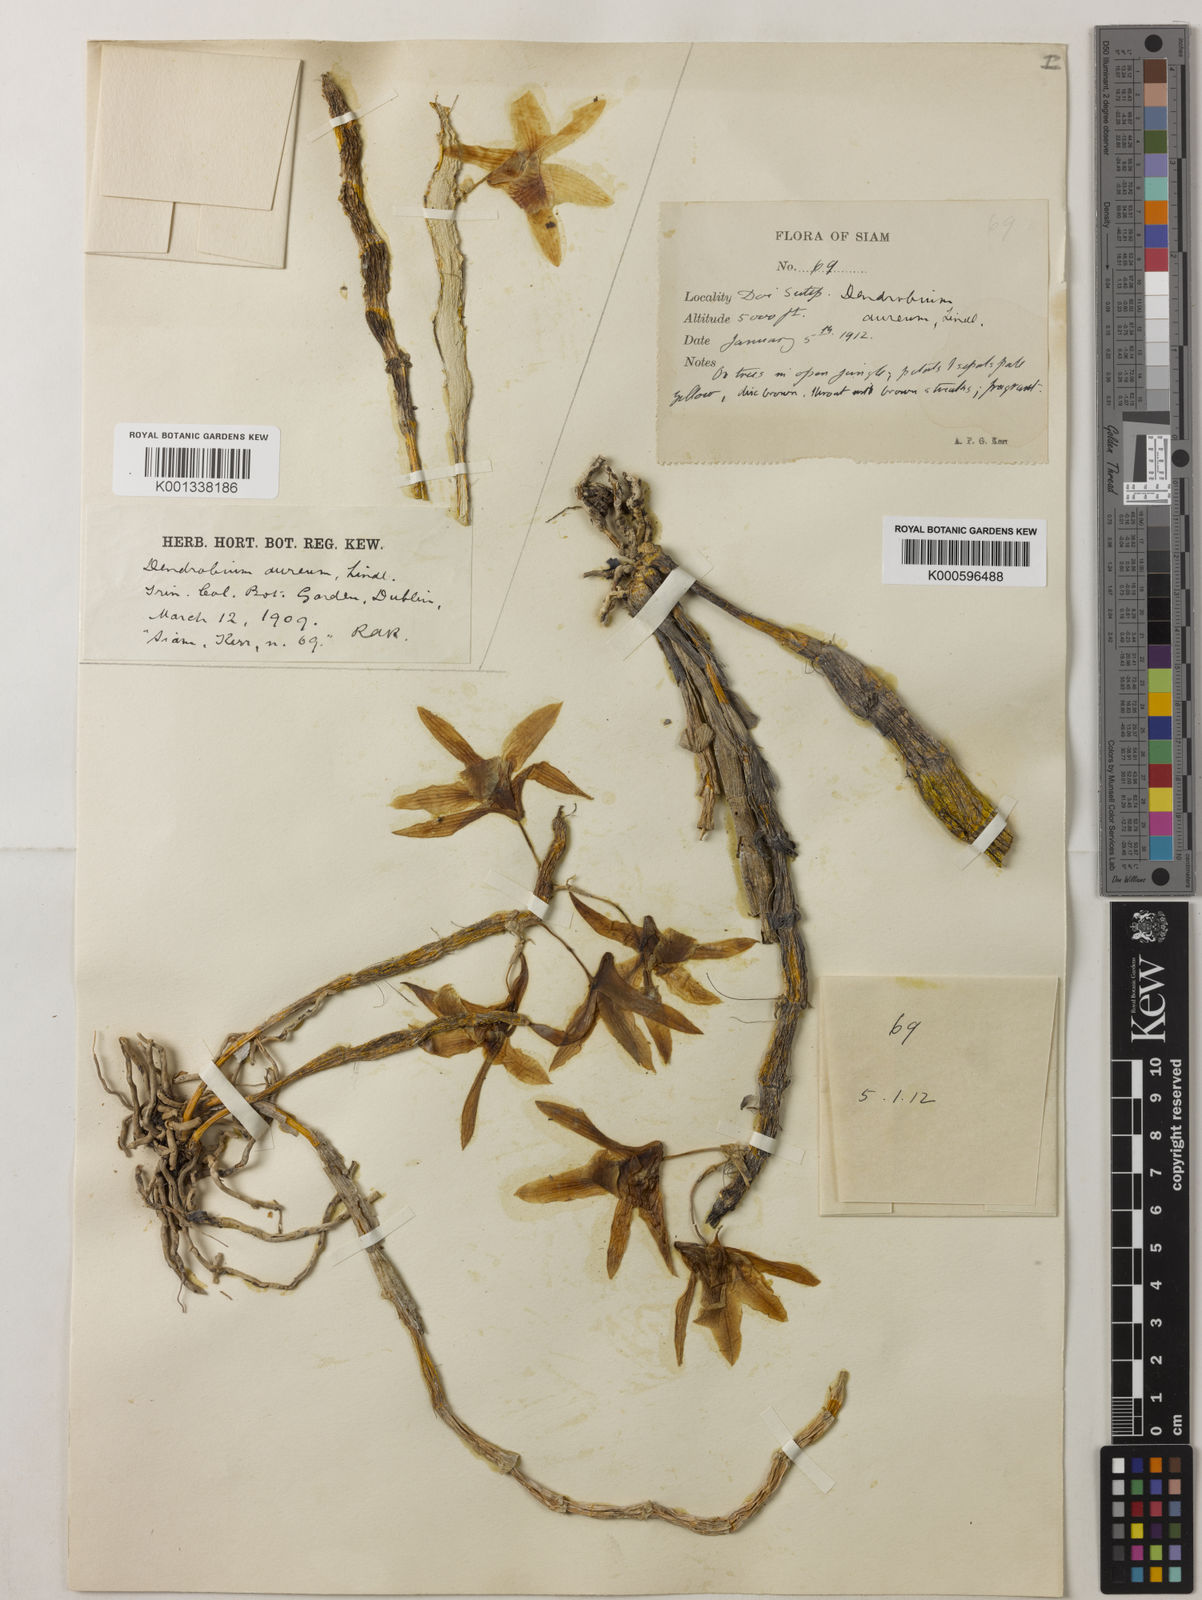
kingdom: Plantae
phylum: Tracheophyta
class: Liliopsida
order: Asparagales
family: Orchidaceae
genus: Dendrobium
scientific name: Dendrobium heterocarpum
